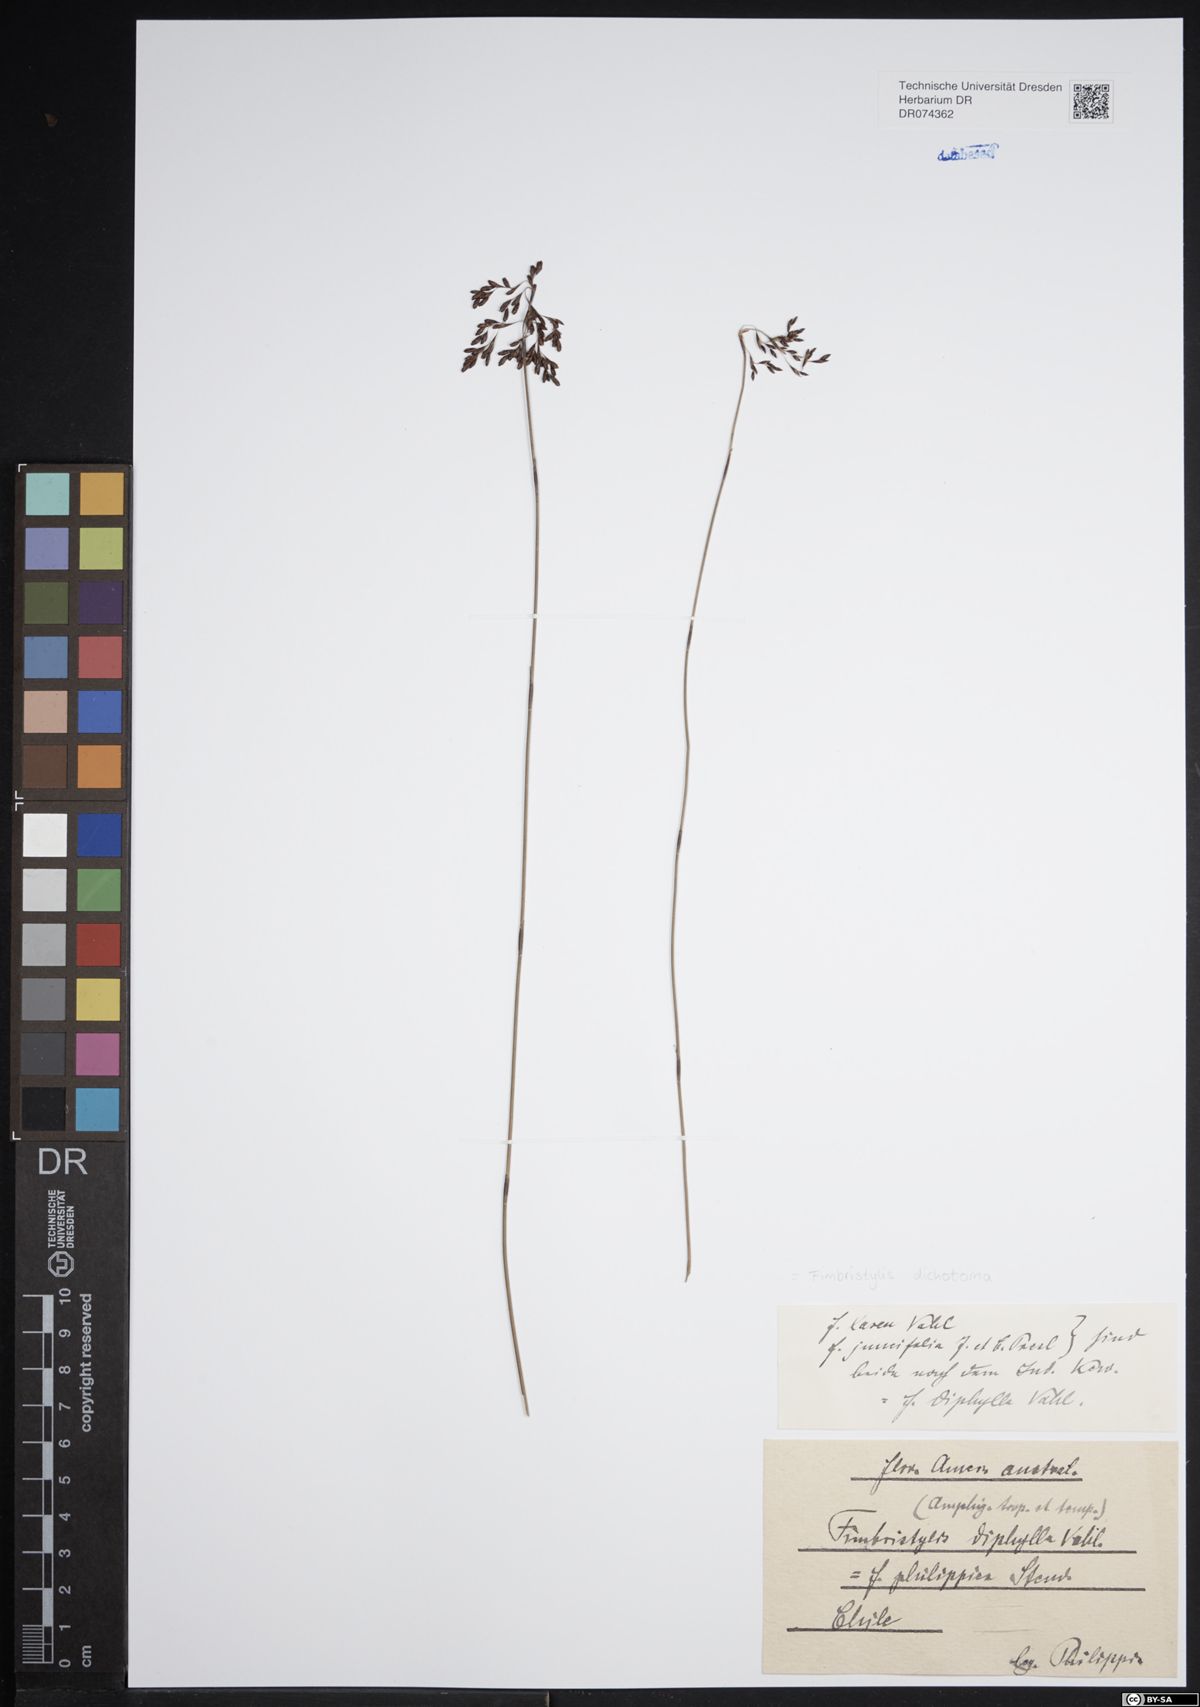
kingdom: Plantae
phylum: Tracheophyta
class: Liliopsida
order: Poales
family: Cyperaceae
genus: Fimbristylis
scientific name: Fimbristylis dichotoma
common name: Forked fimbry
